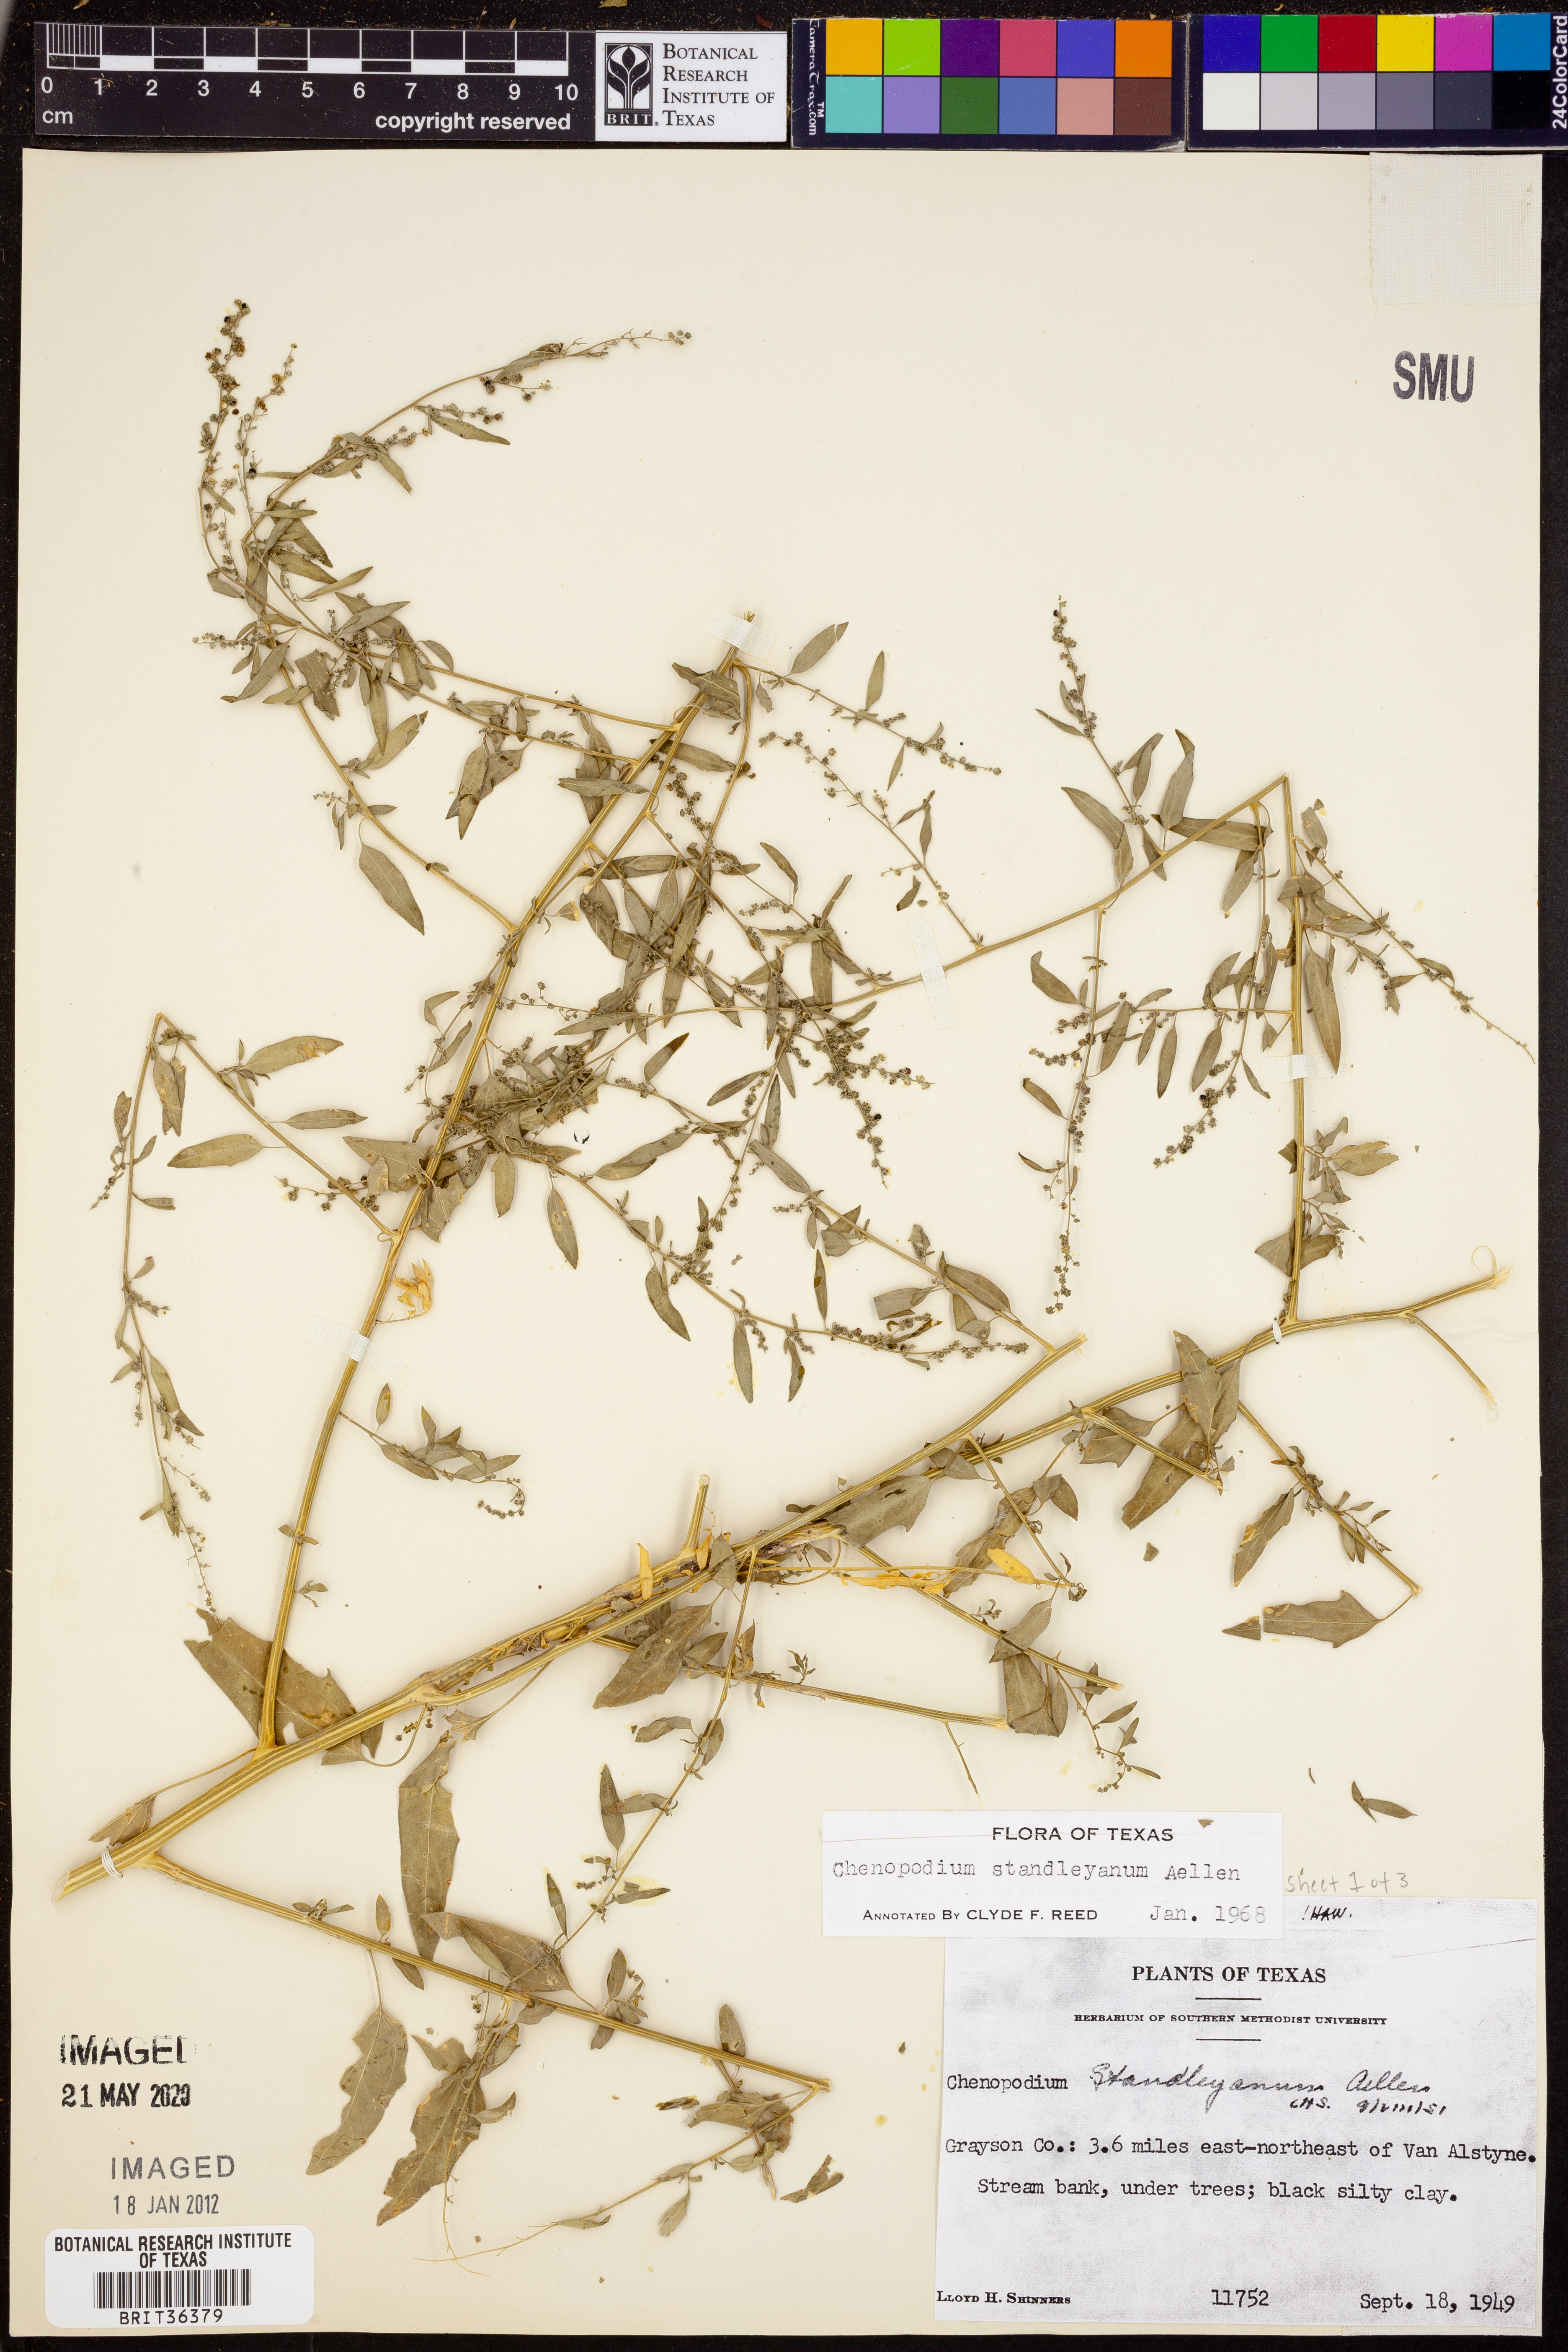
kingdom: Plantae
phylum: Tracheophyta
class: Magnoliopsida
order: Caryophyllales
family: Amaranthaceae
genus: Chenopodiastrum
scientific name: Chenopodiastrum standleyanum
